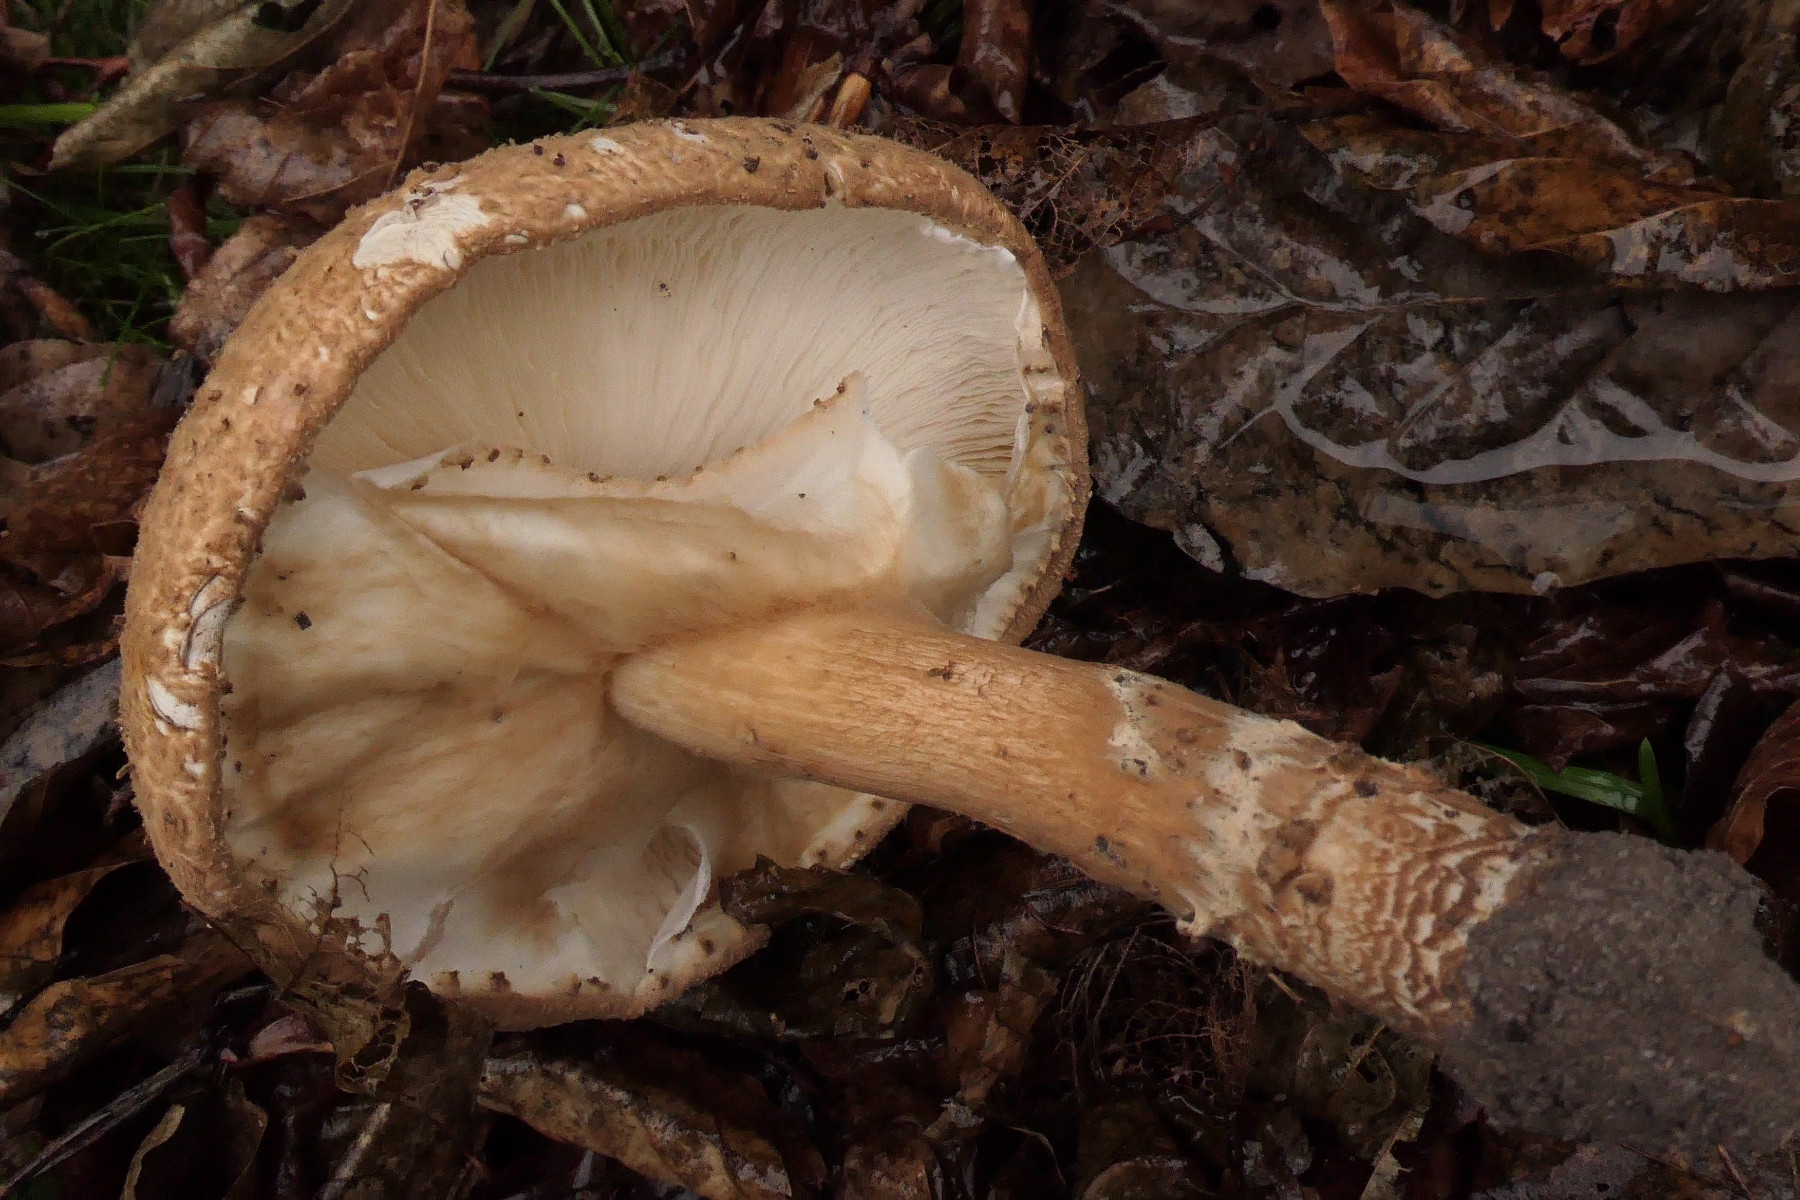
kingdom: Fungi
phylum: Basidiomycota
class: Agaricomycetes
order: Agaricales
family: Agaricaceae
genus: Echinoderma
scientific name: Echinoderma asperum
